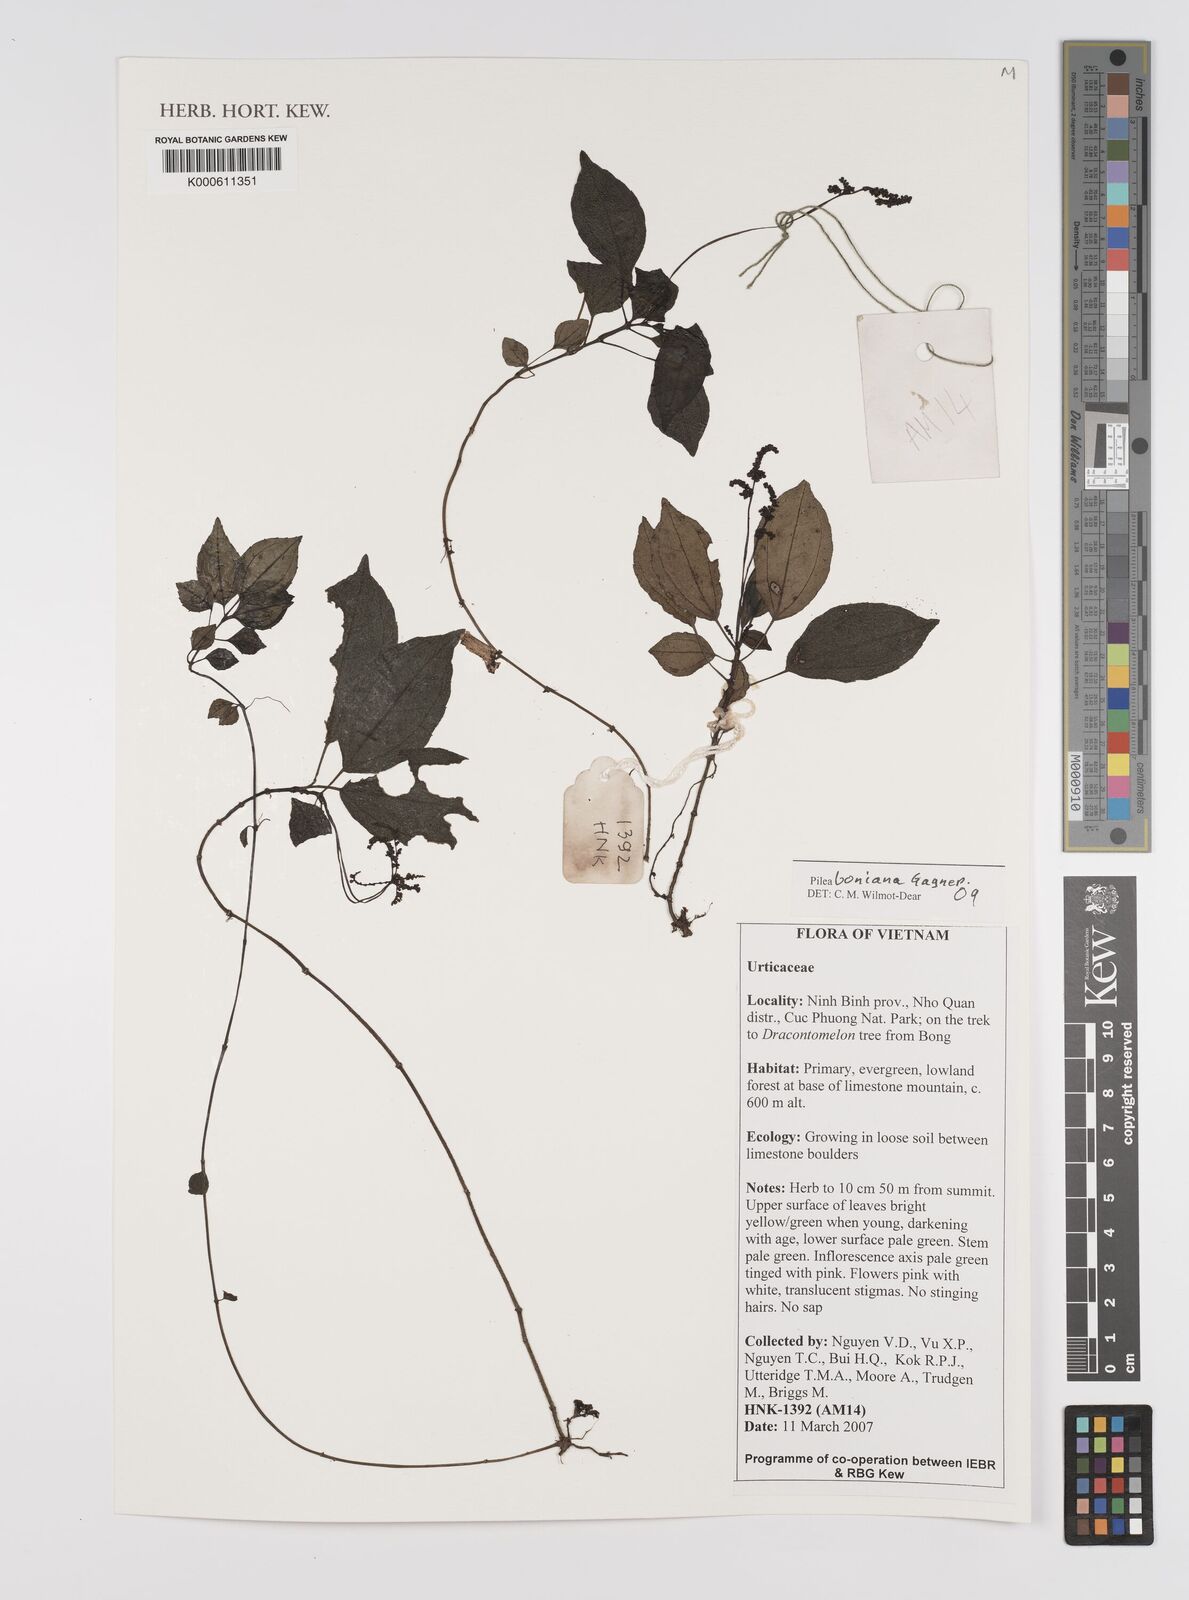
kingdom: Plantae
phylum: Tracheophyta
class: Magnoliopsida
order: Rosales
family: Urticaceae
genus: Achudemia
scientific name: Achudemia boniana
